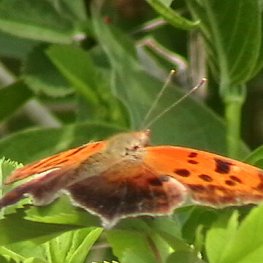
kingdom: Animalia
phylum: Arthropoda
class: Insecta
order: Lepidoptera
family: Nymphalidae
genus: Polygonia
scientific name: Polygonia interrogationis
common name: Question Mark
